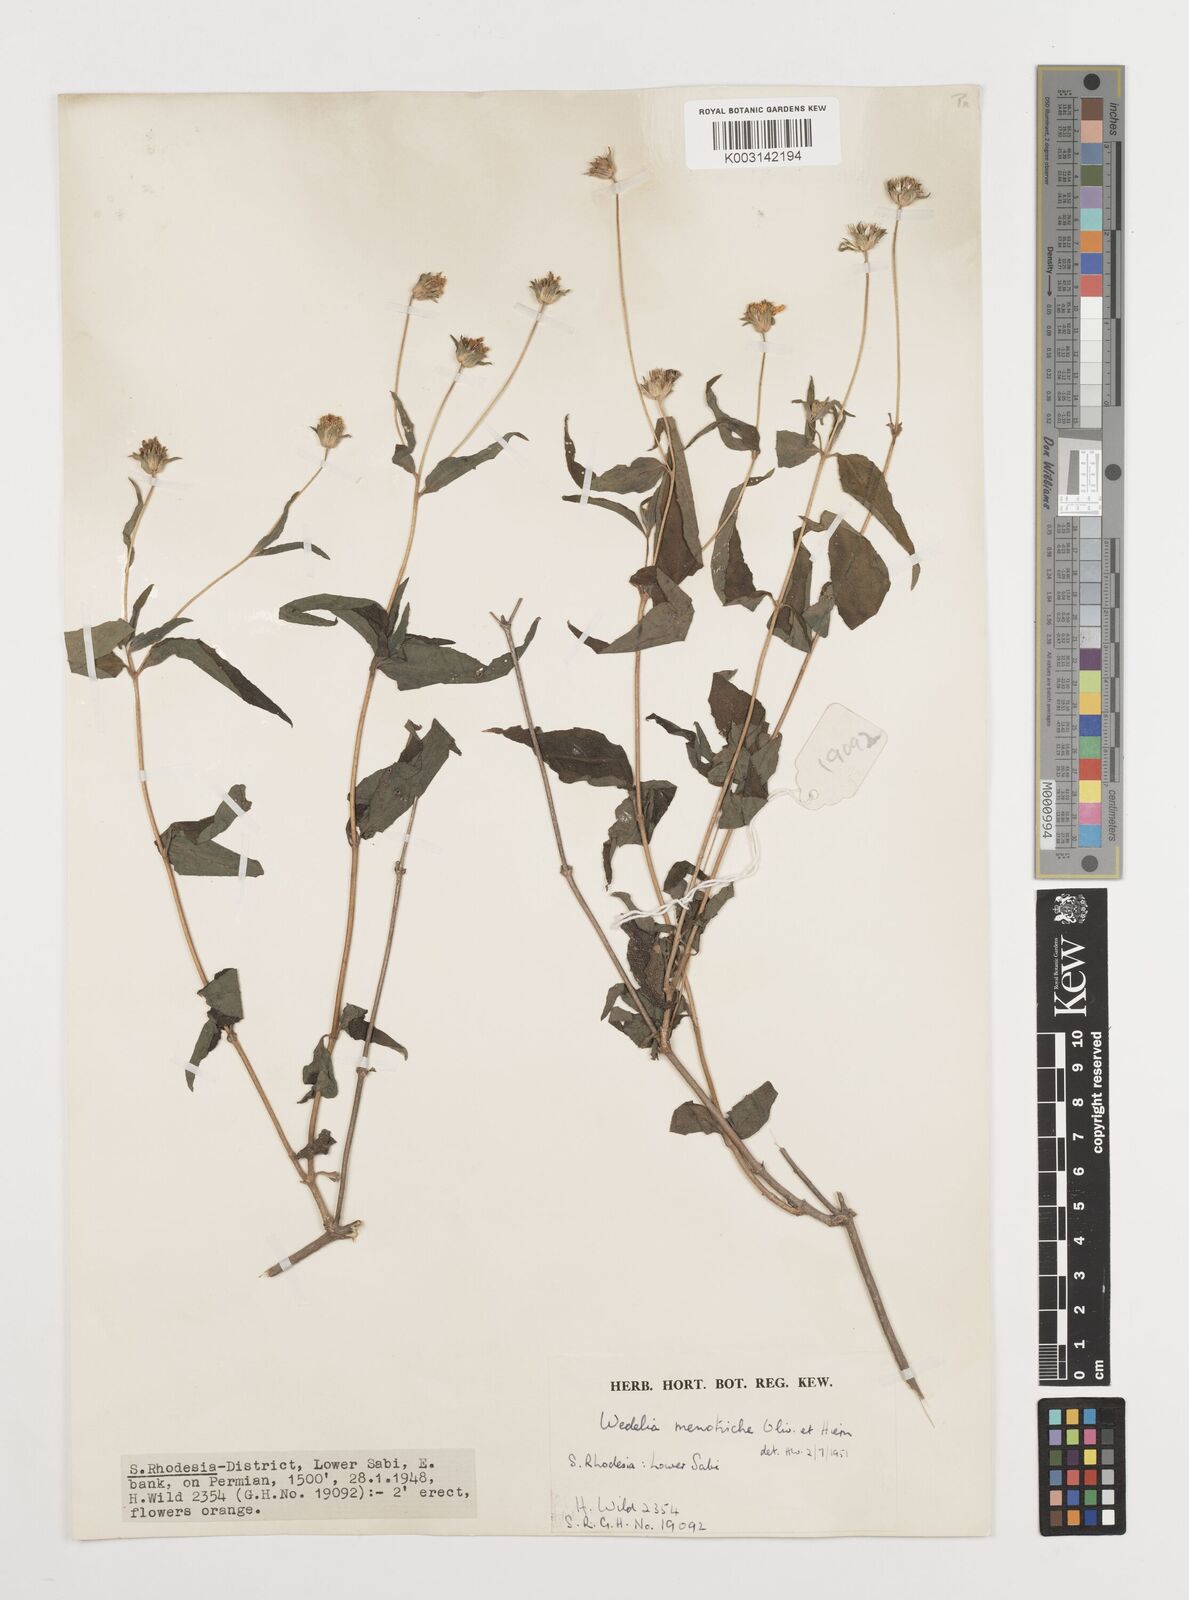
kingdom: Plantae
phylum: Tracheophyta
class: Magnoliopsida
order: Asterales
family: Asteraceae
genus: Aspilia
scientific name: Aspilia mossambicensis
